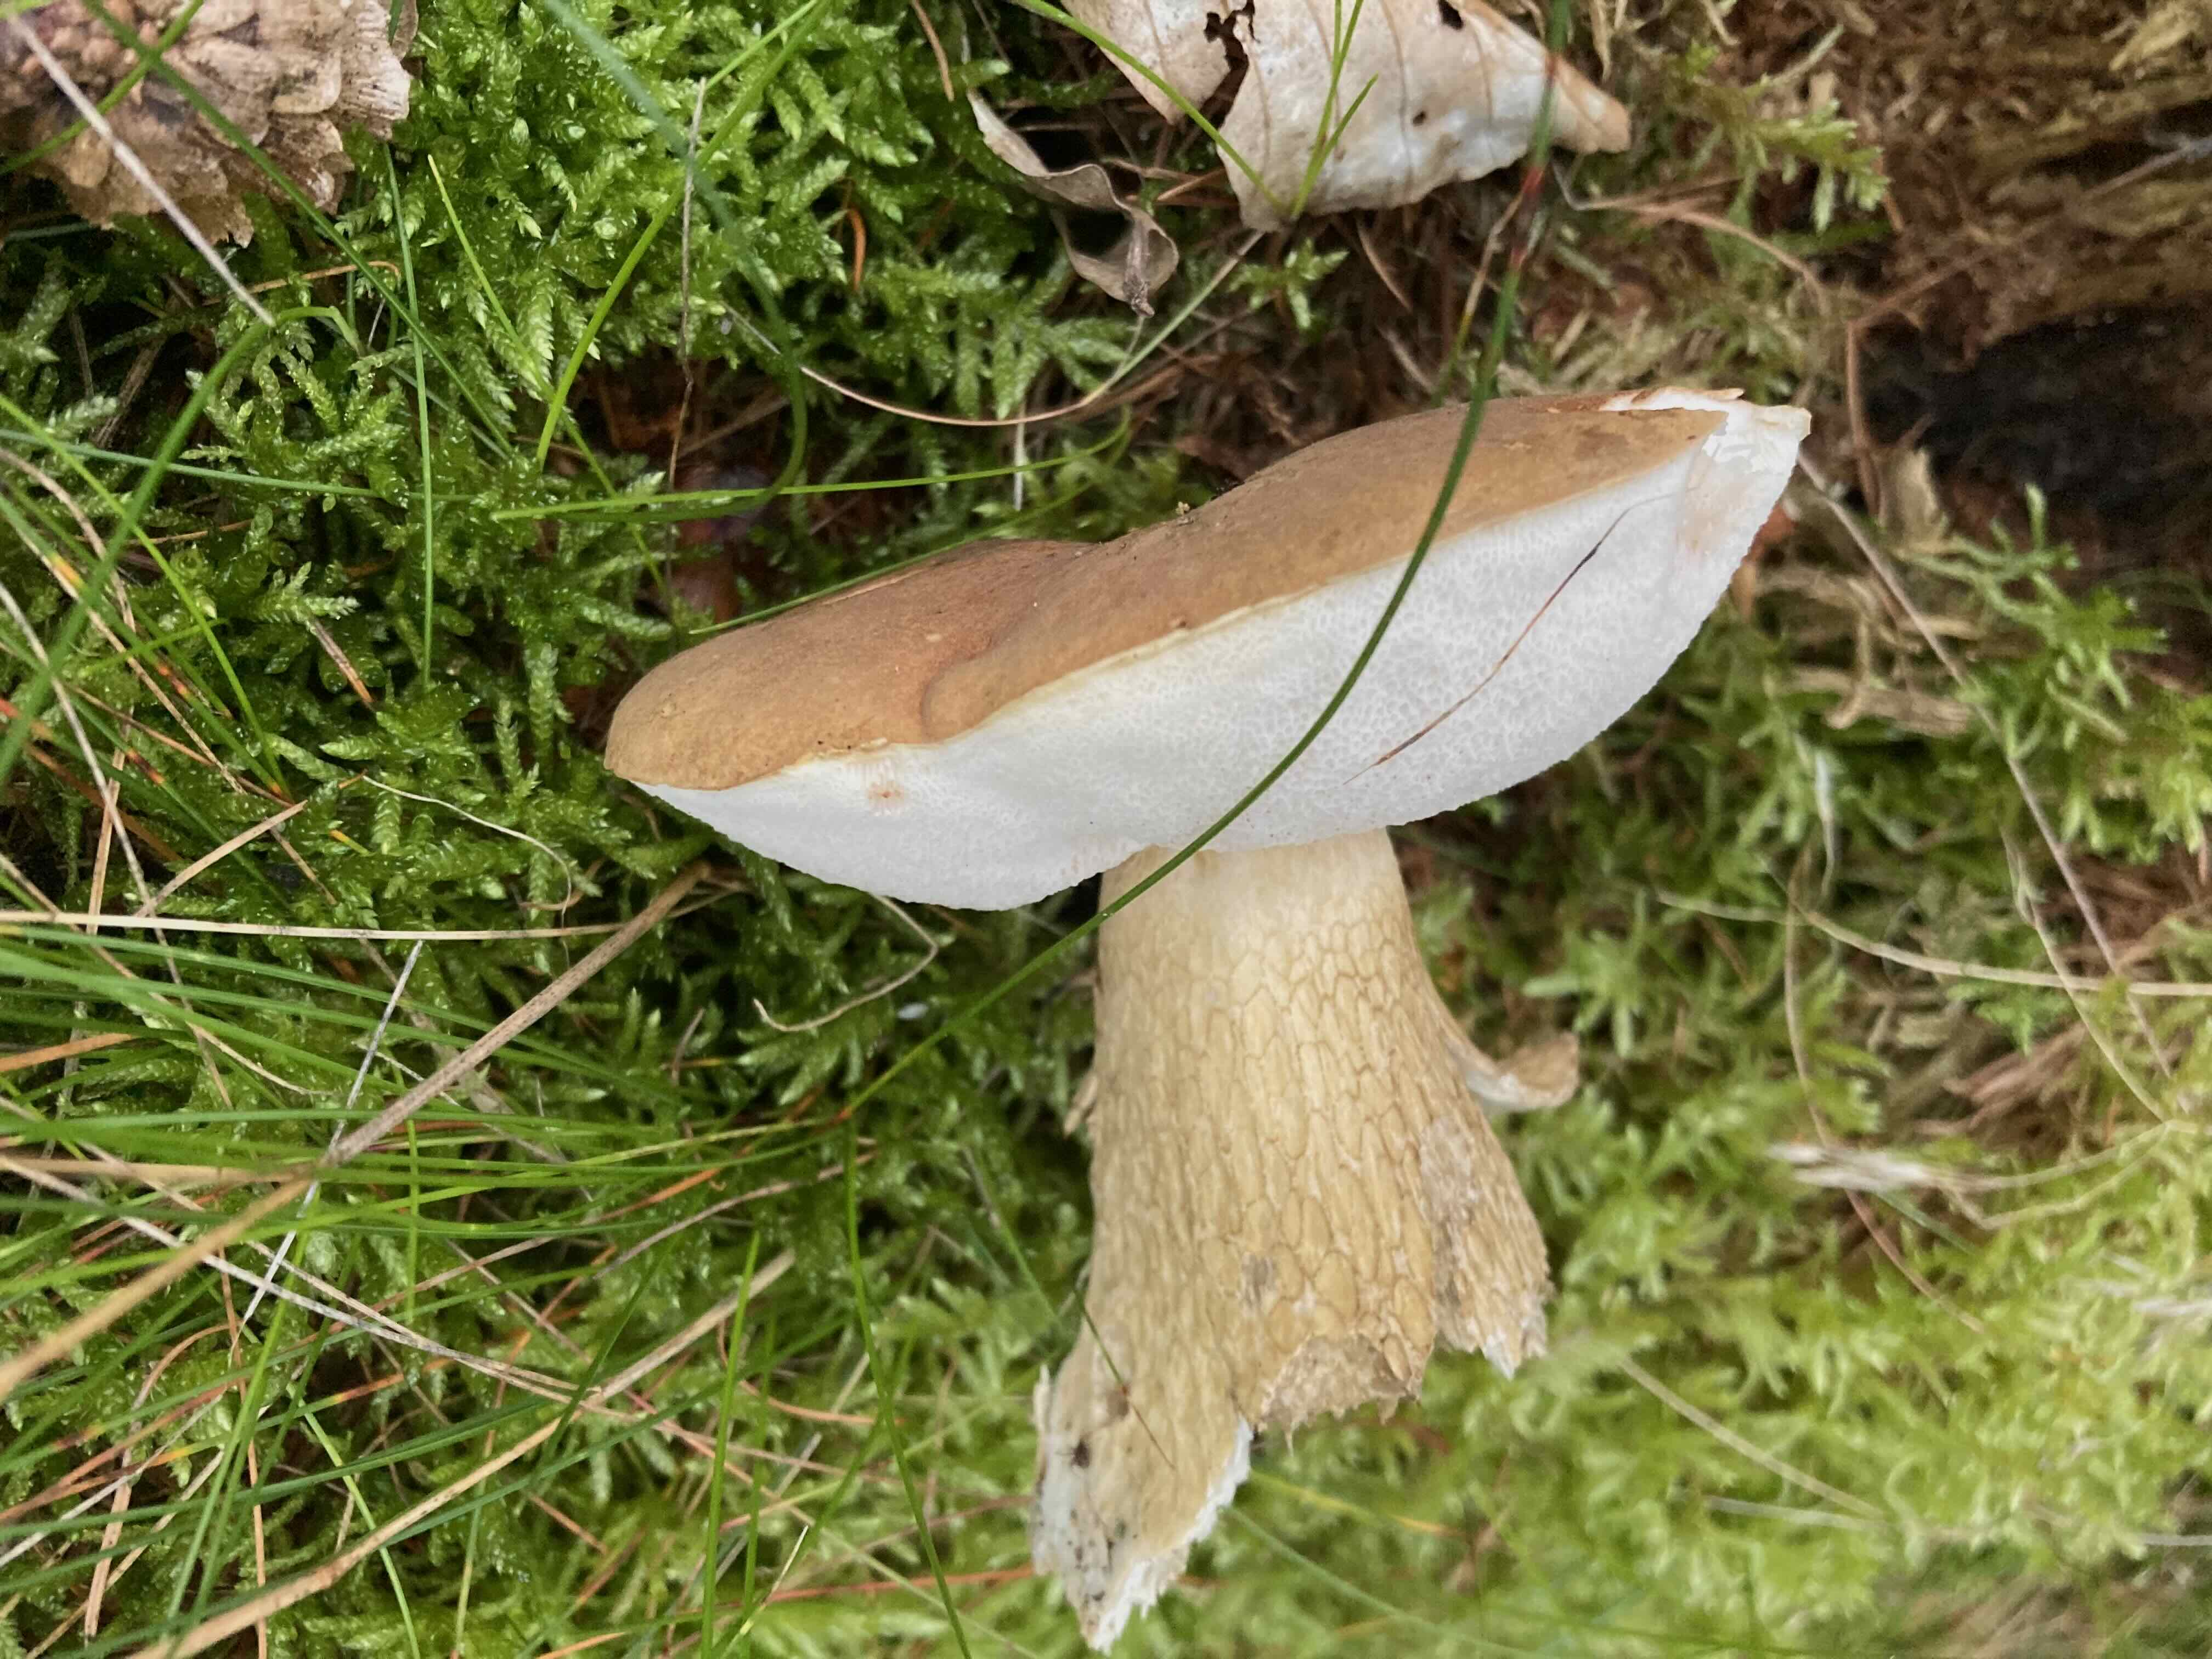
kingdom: Fungi
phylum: Basidiomycota
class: Agaricomycetes
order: Boletales
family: Boletaceae
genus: Tylopilus
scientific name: Tylopilus felleus
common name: galderørhat
